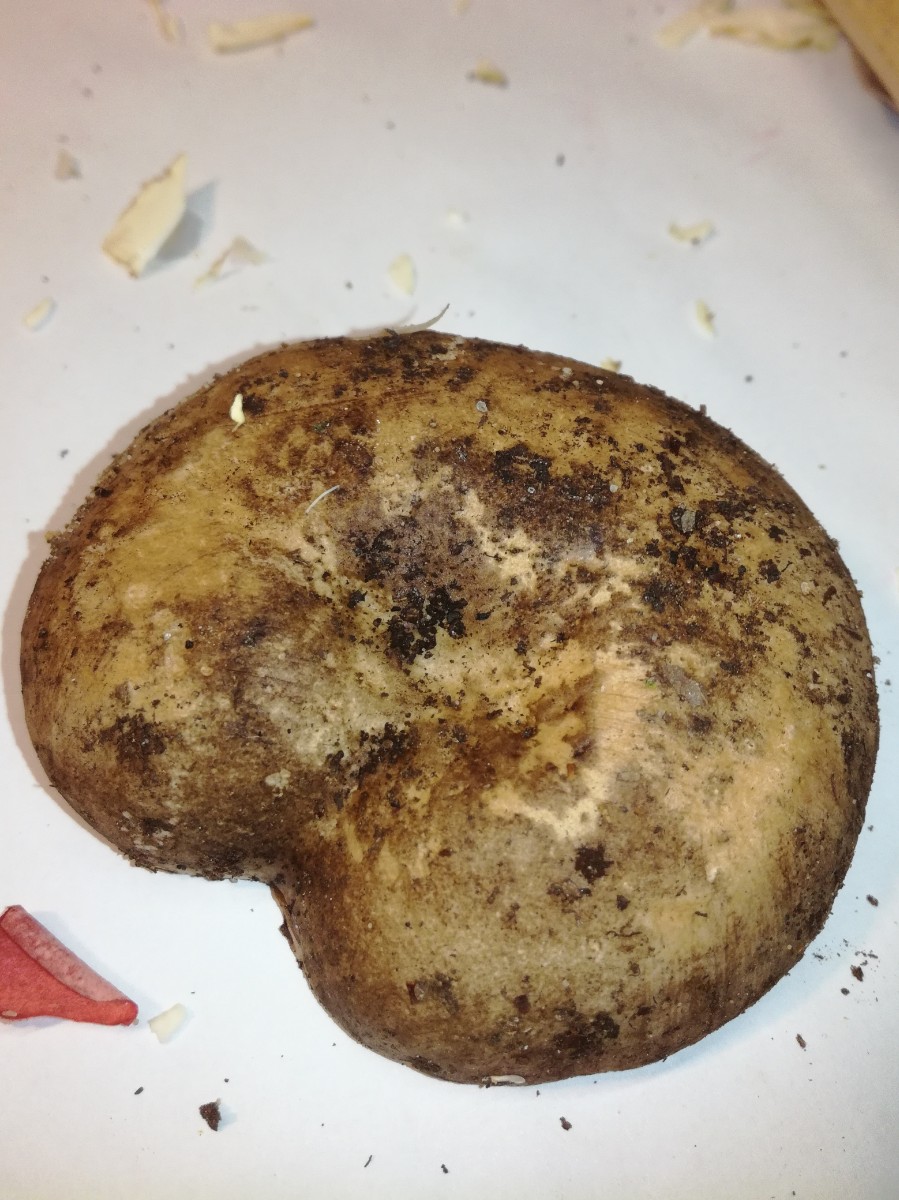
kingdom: Fungi
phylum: Basidiomycota
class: Agaricomycetes
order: Russulales
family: Russulaceae
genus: Russula
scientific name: Russula adusta
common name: sværtende skørhat
